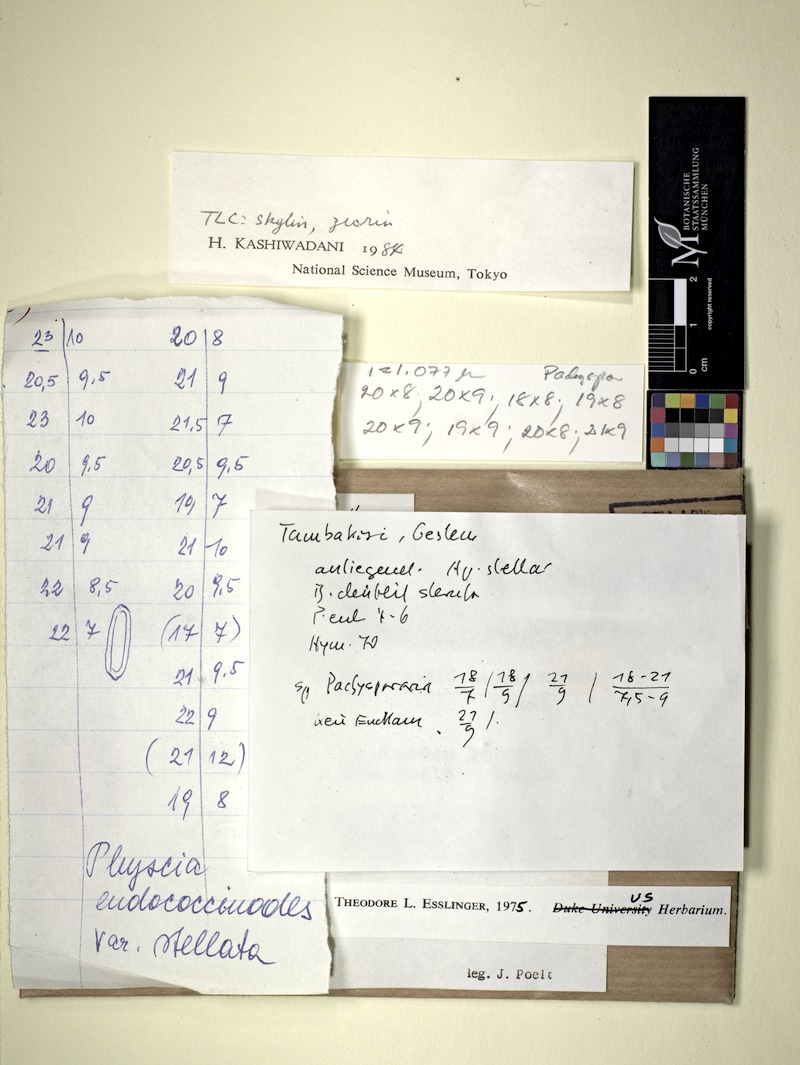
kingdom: Fungi
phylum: Ascomycota
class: Lecanoromycetes
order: Caliciales
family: Physciaceae
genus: Phaeophyscia
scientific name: Phaeophyscia endococcinodes
